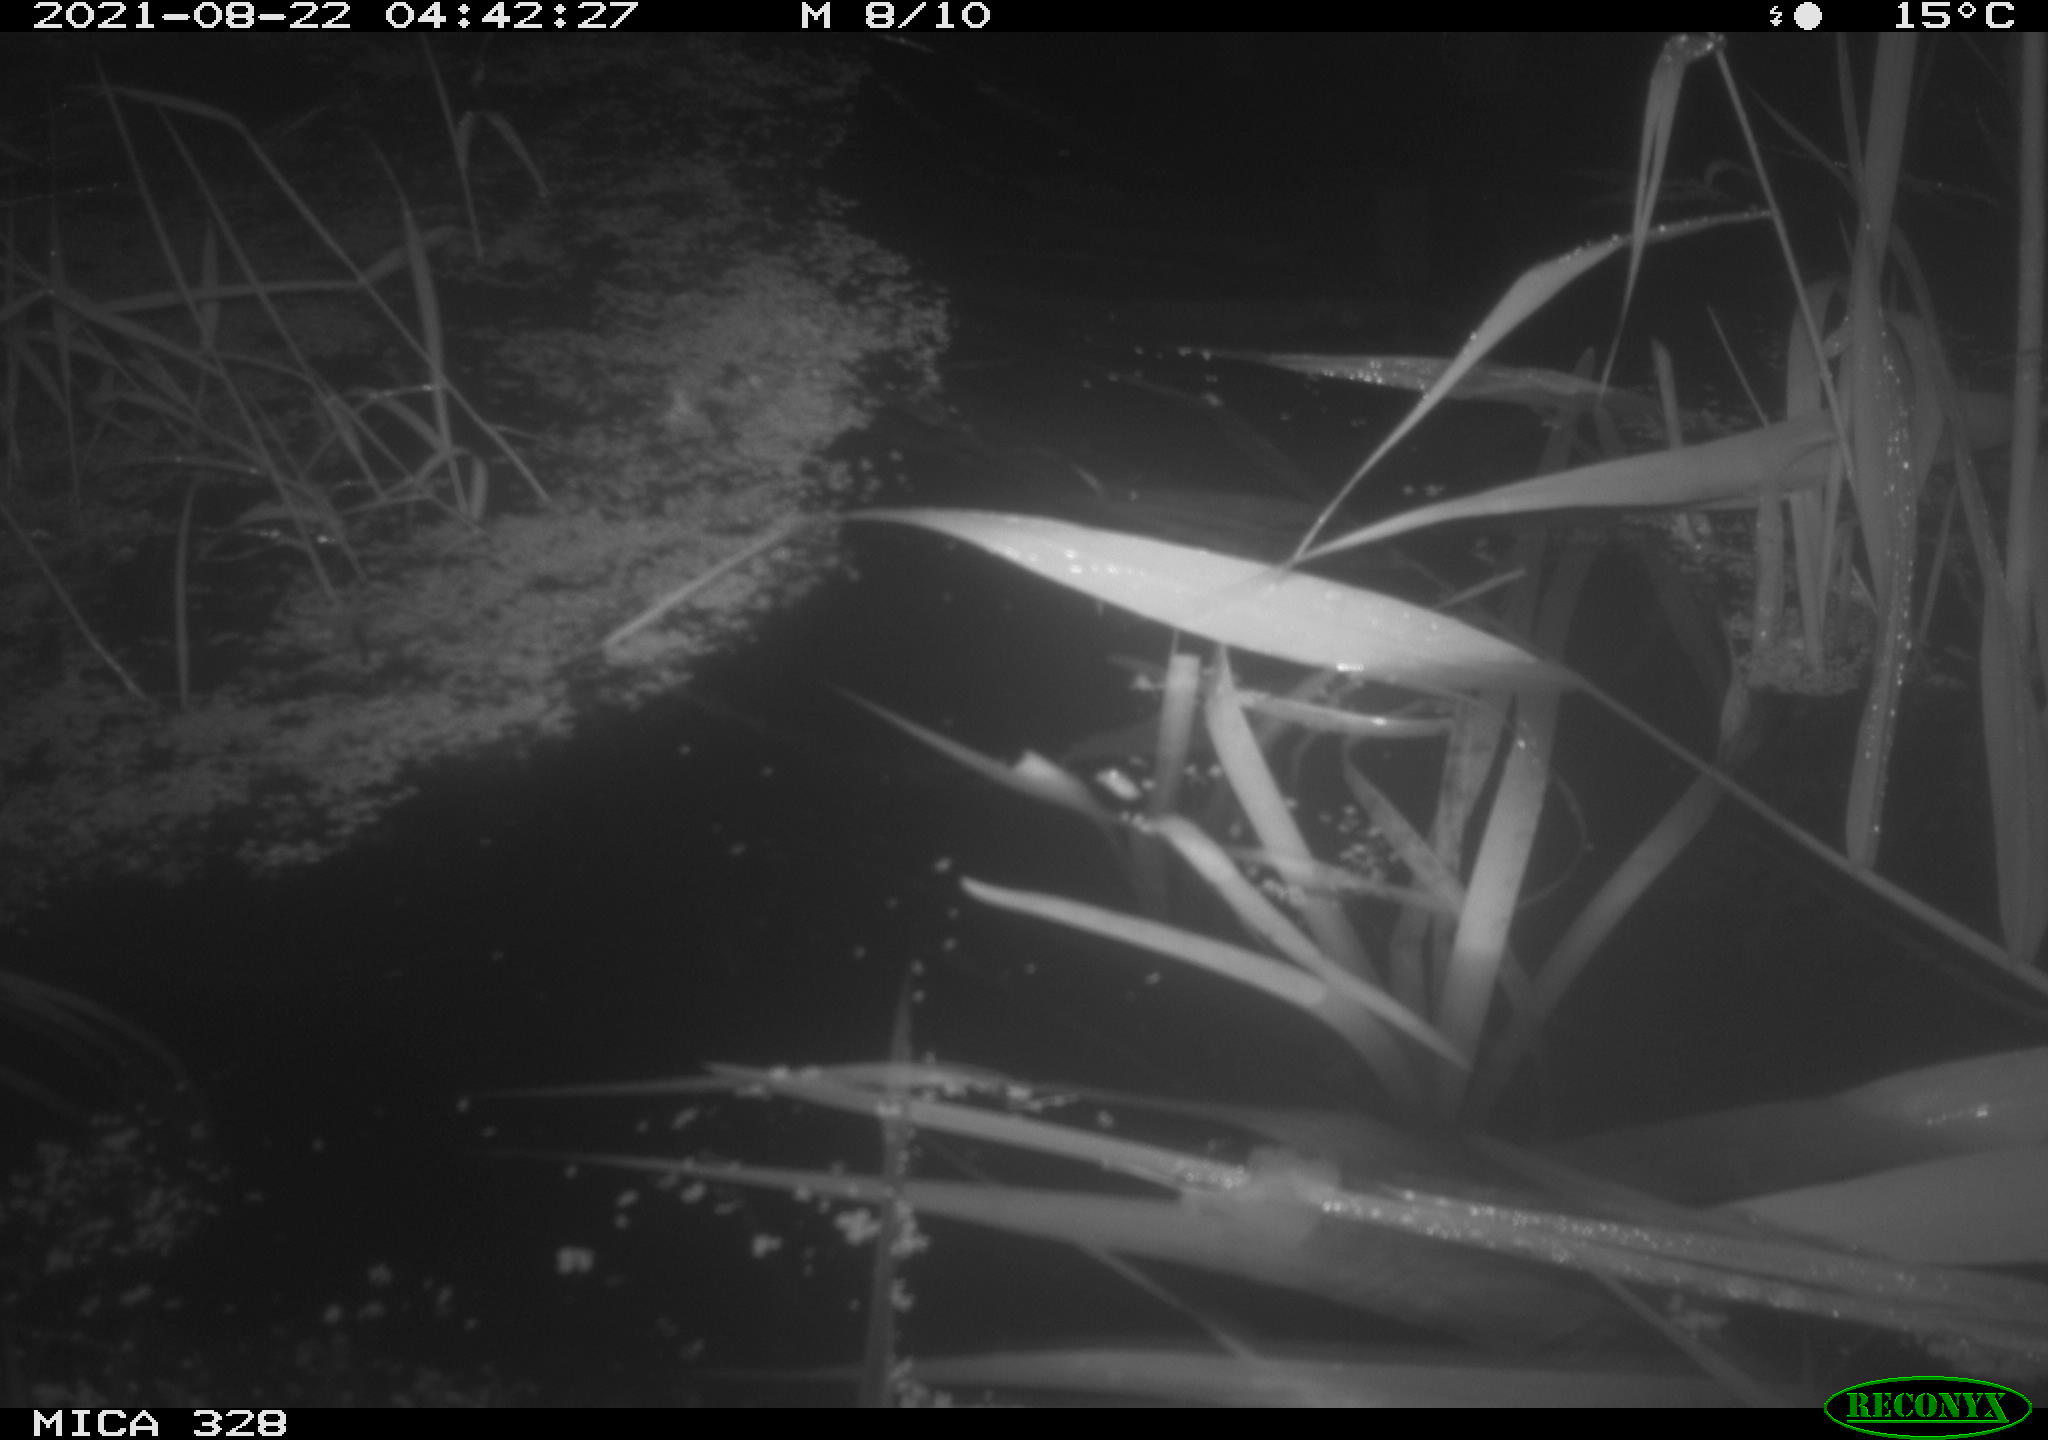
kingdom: Animalia
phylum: Chordata
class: Mammalia
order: Rodentia
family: Cricetidae
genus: Ondatra
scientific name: Ondatra zibethicus
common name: Muskrat
